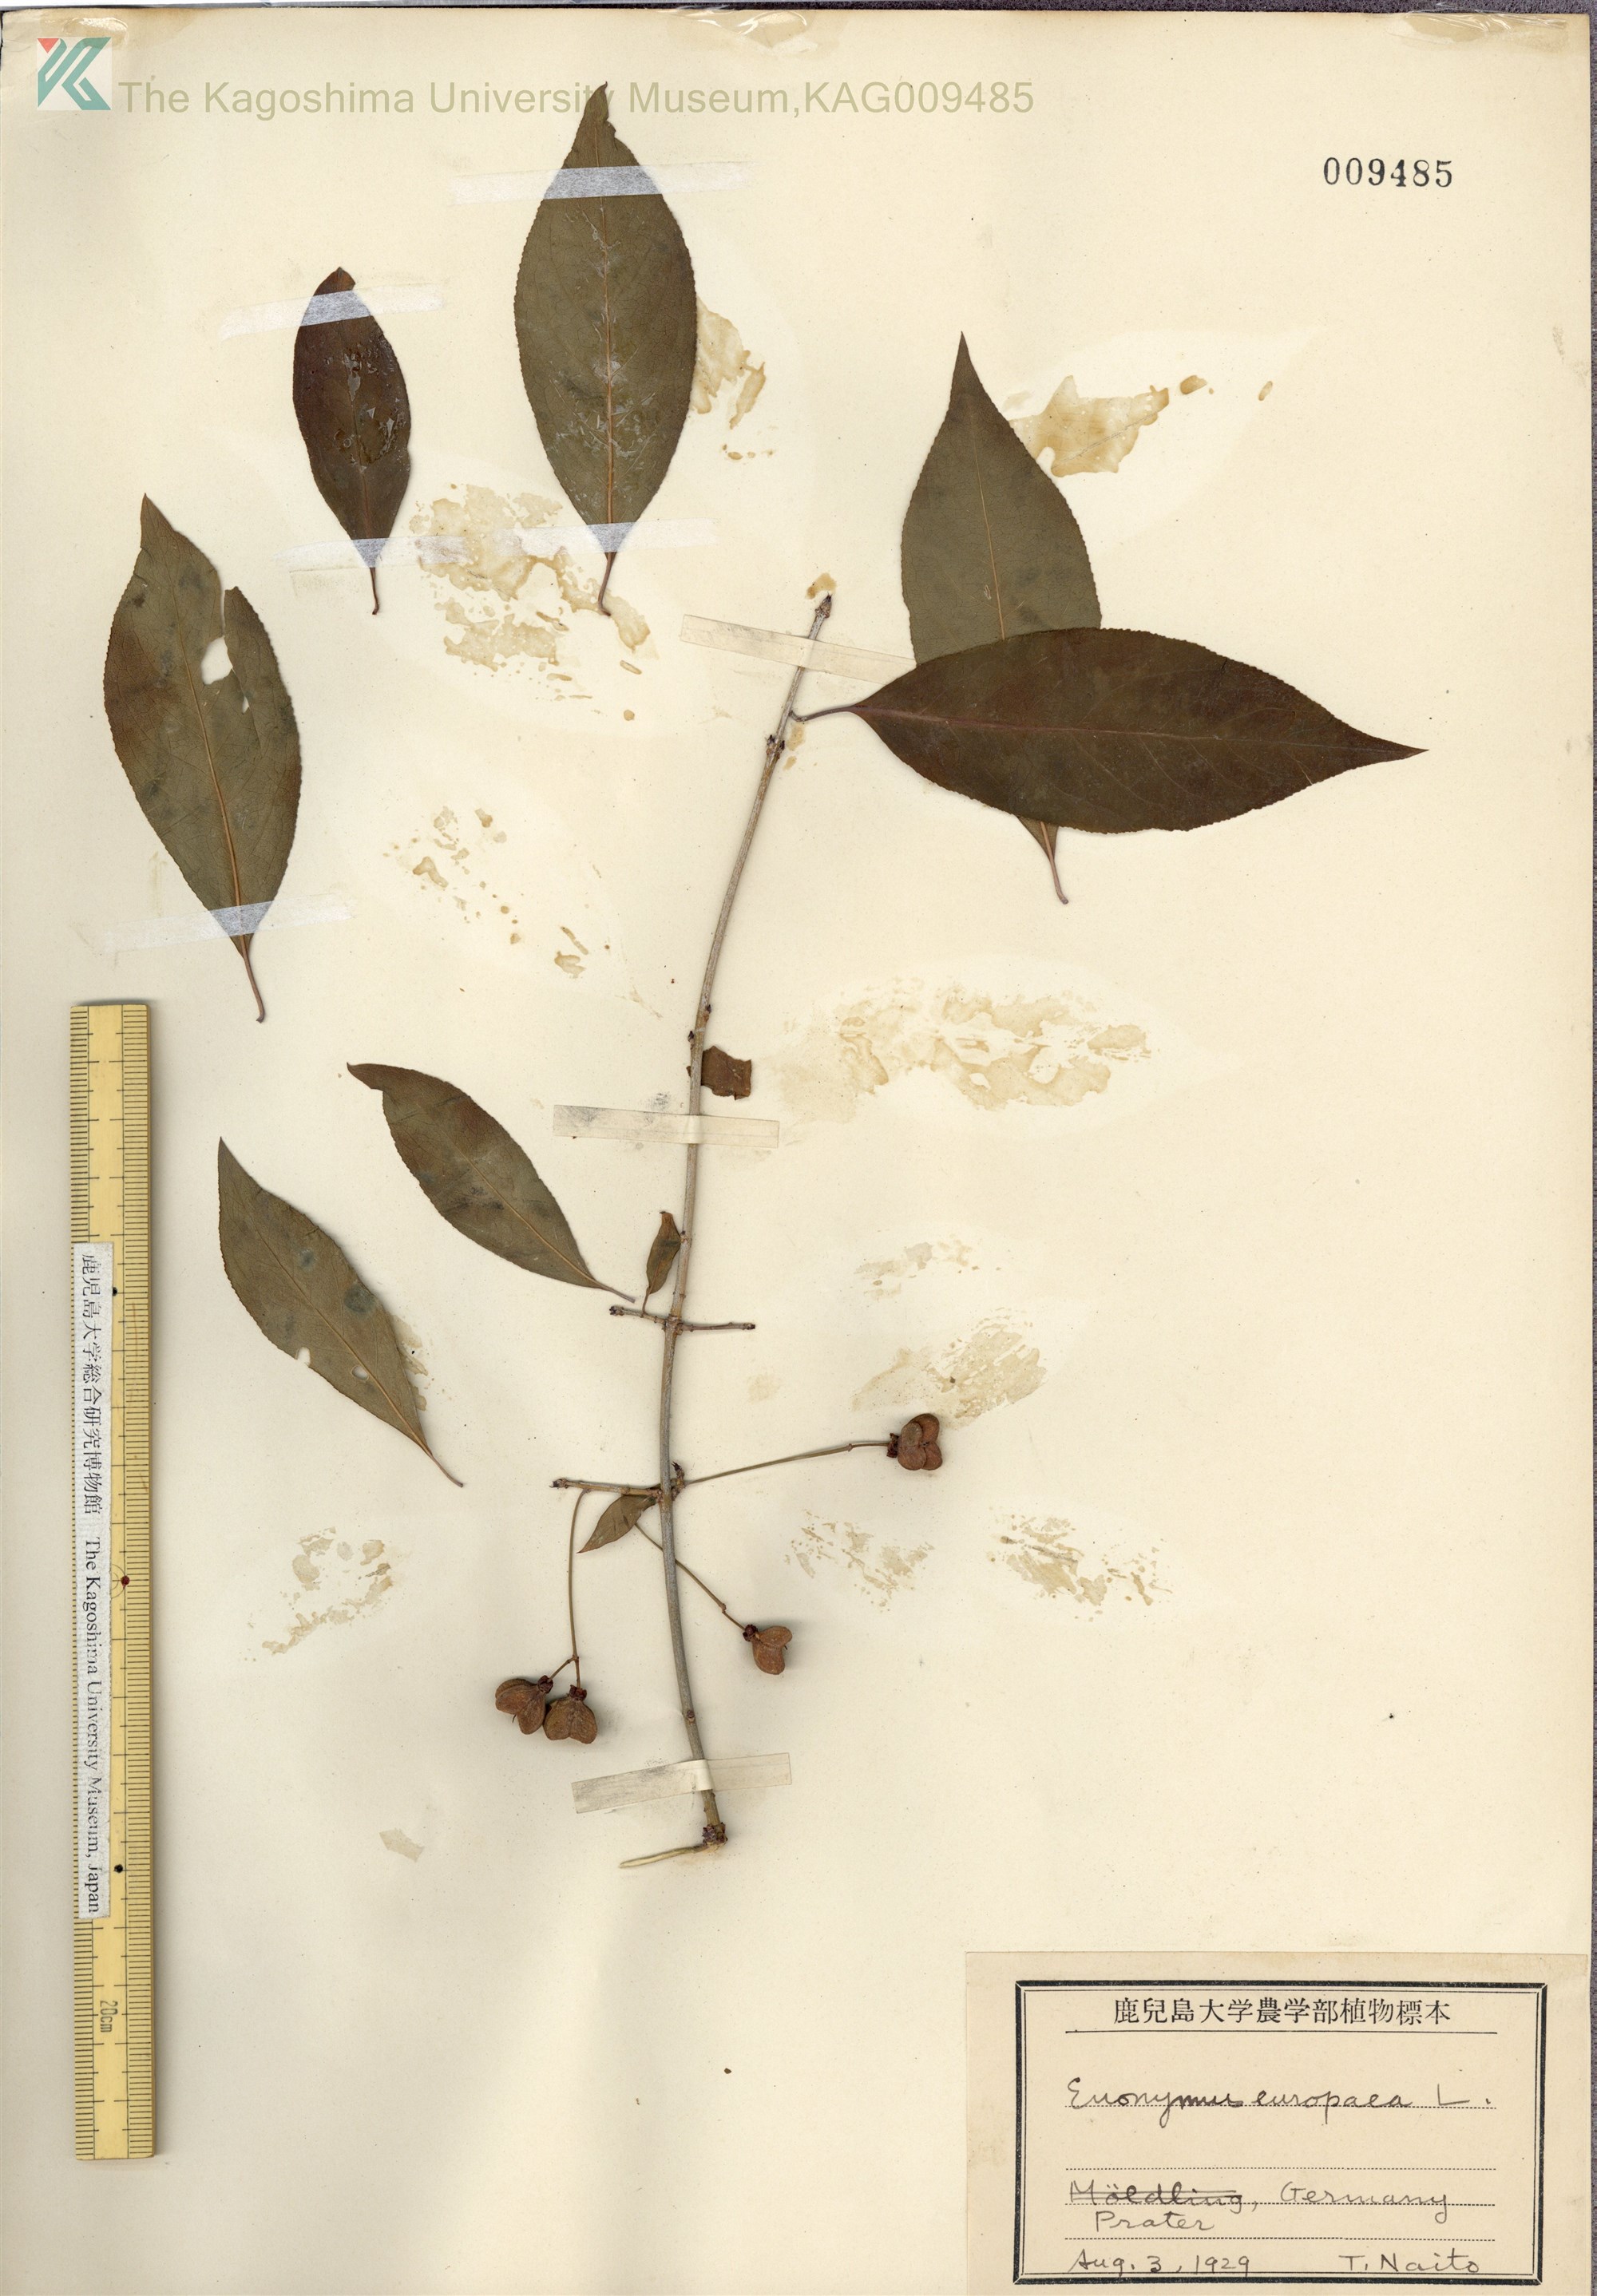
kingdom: Plantae
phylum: Tracheophyta
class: Magnoliopsida
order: Celastrales
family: Celastraceae
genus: Euonymus
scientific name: Euonymus europaeus
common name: Spindle
